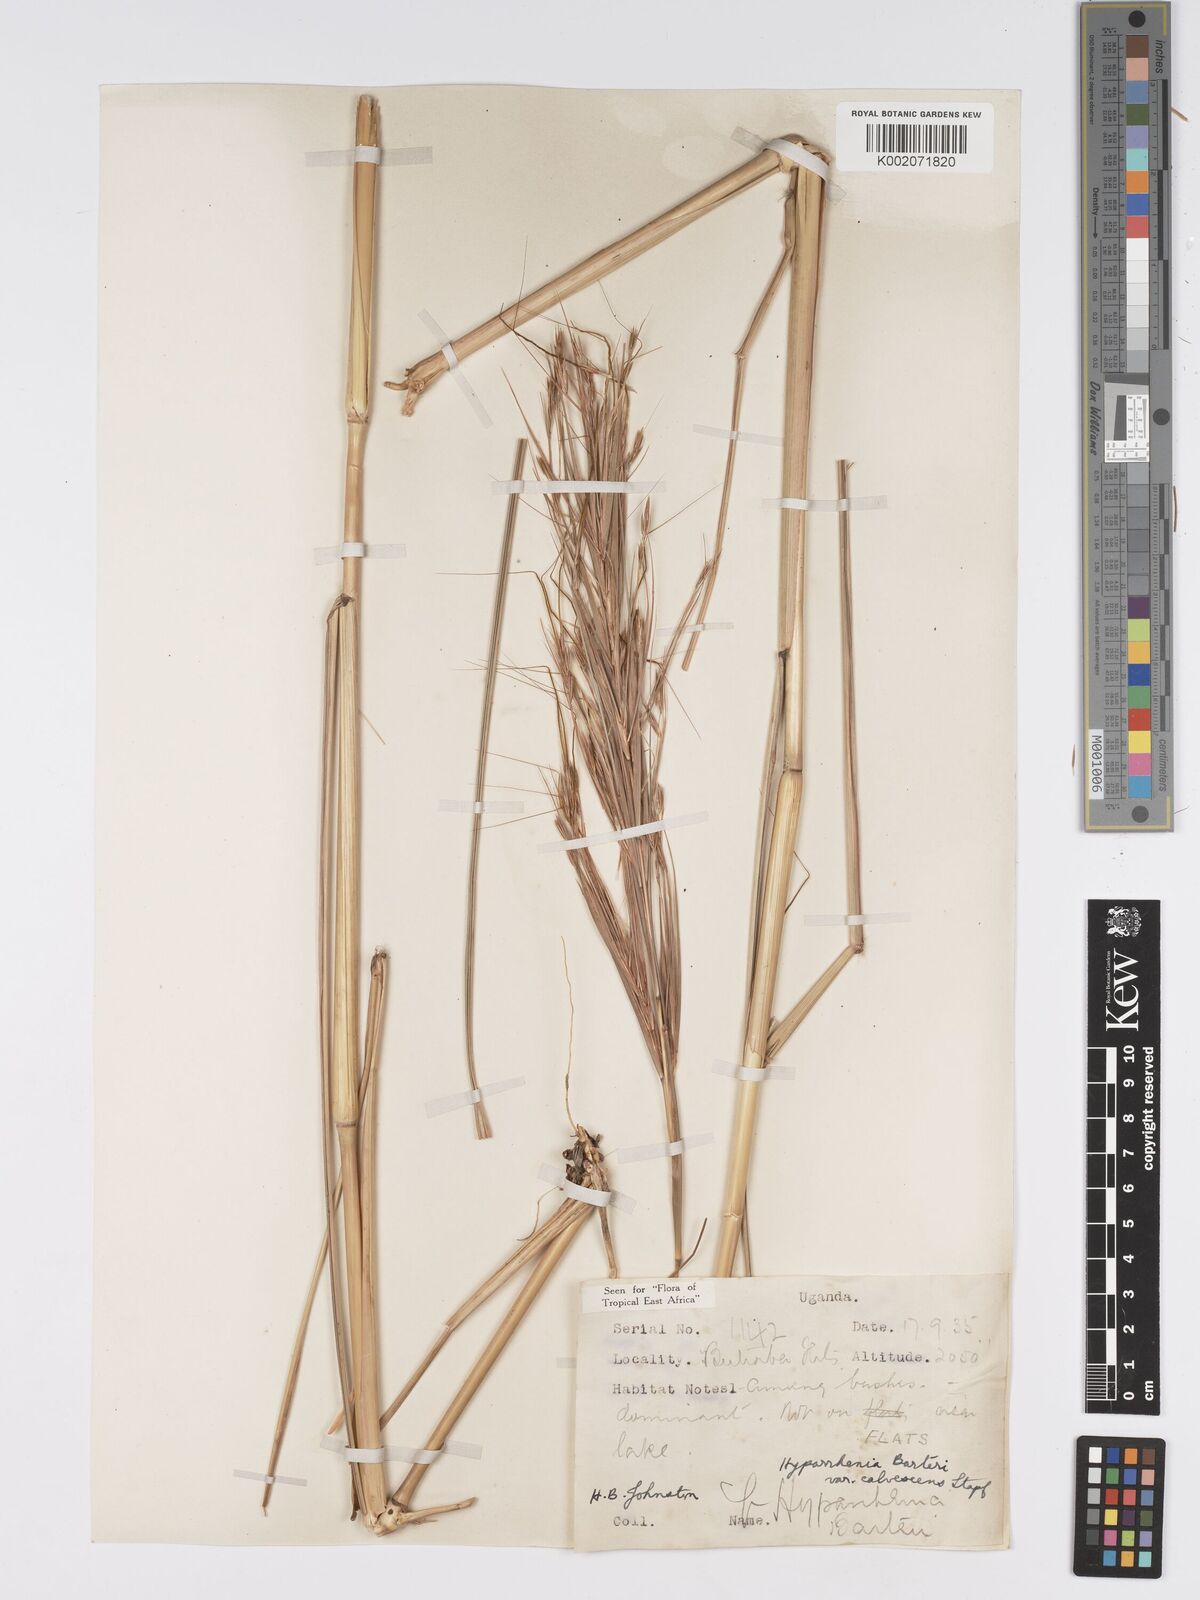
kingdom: Plantae
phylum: Tracheophyta
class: Liliopsida
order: Poales
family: Poaceae
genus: Hyparrhenia
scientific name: Hyparrhenia figariana
